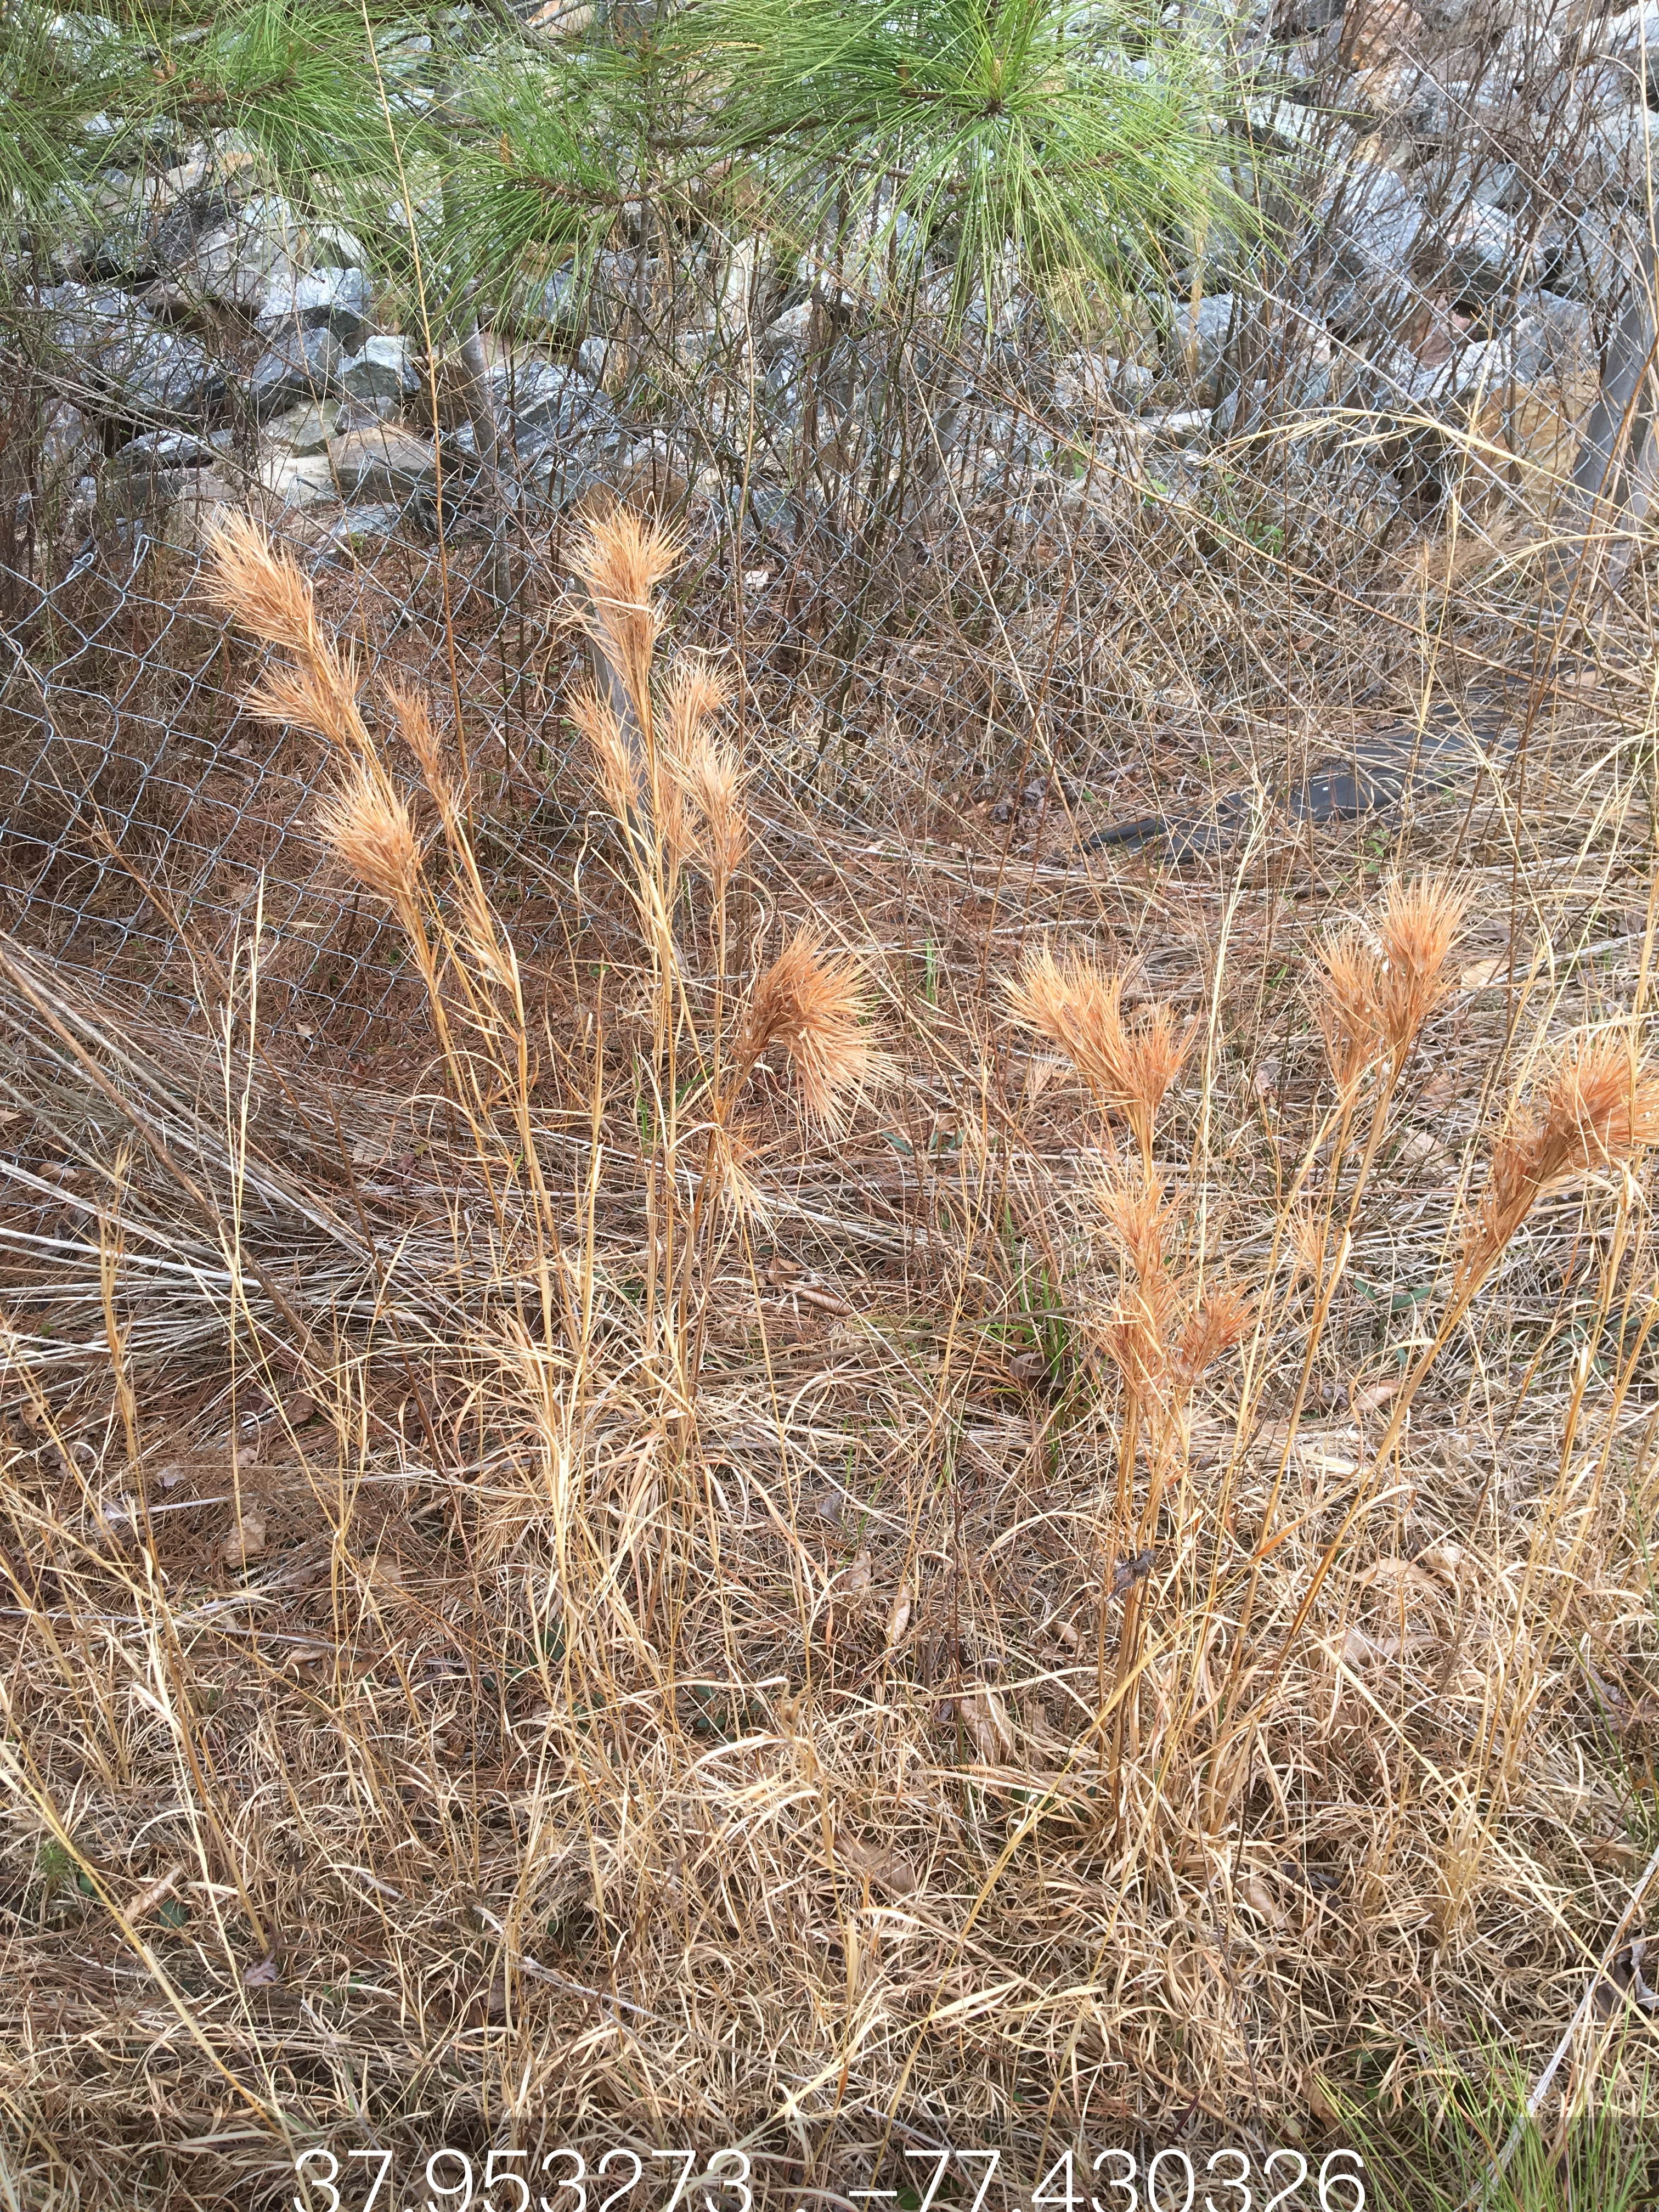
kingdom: Plantae
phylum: Tracheophyta
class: Liliopsida
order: Poales
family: Poaceae
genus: Andropogon
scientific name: Andropogon glomeratus
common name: bushy bluestem
